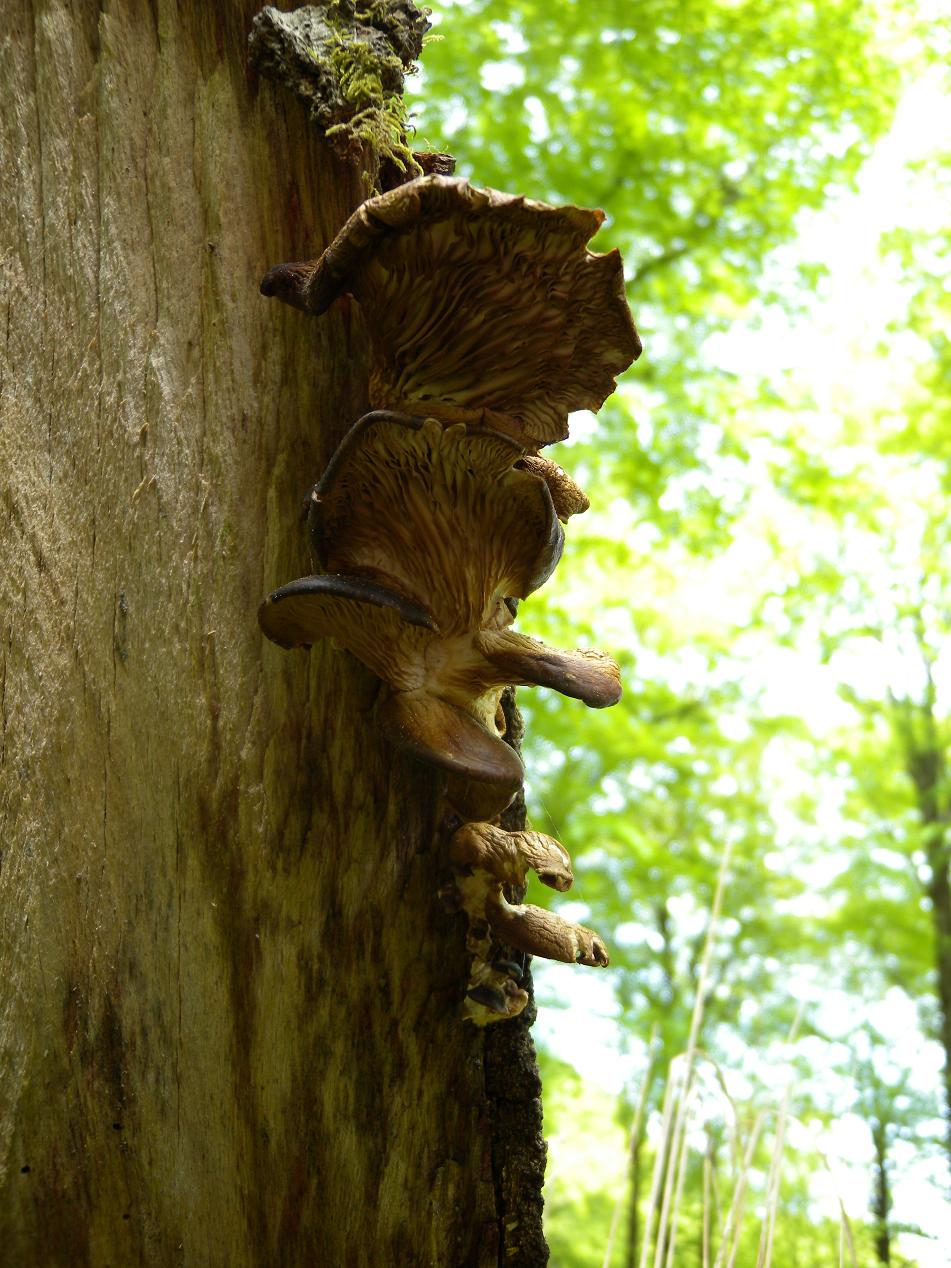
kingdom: Fungi
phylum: Basidiomycota
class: Agaricomycetes
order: Agaricales
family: Pleurotaceae
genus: Pleurotus
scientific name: Pleurotus ostreatus
